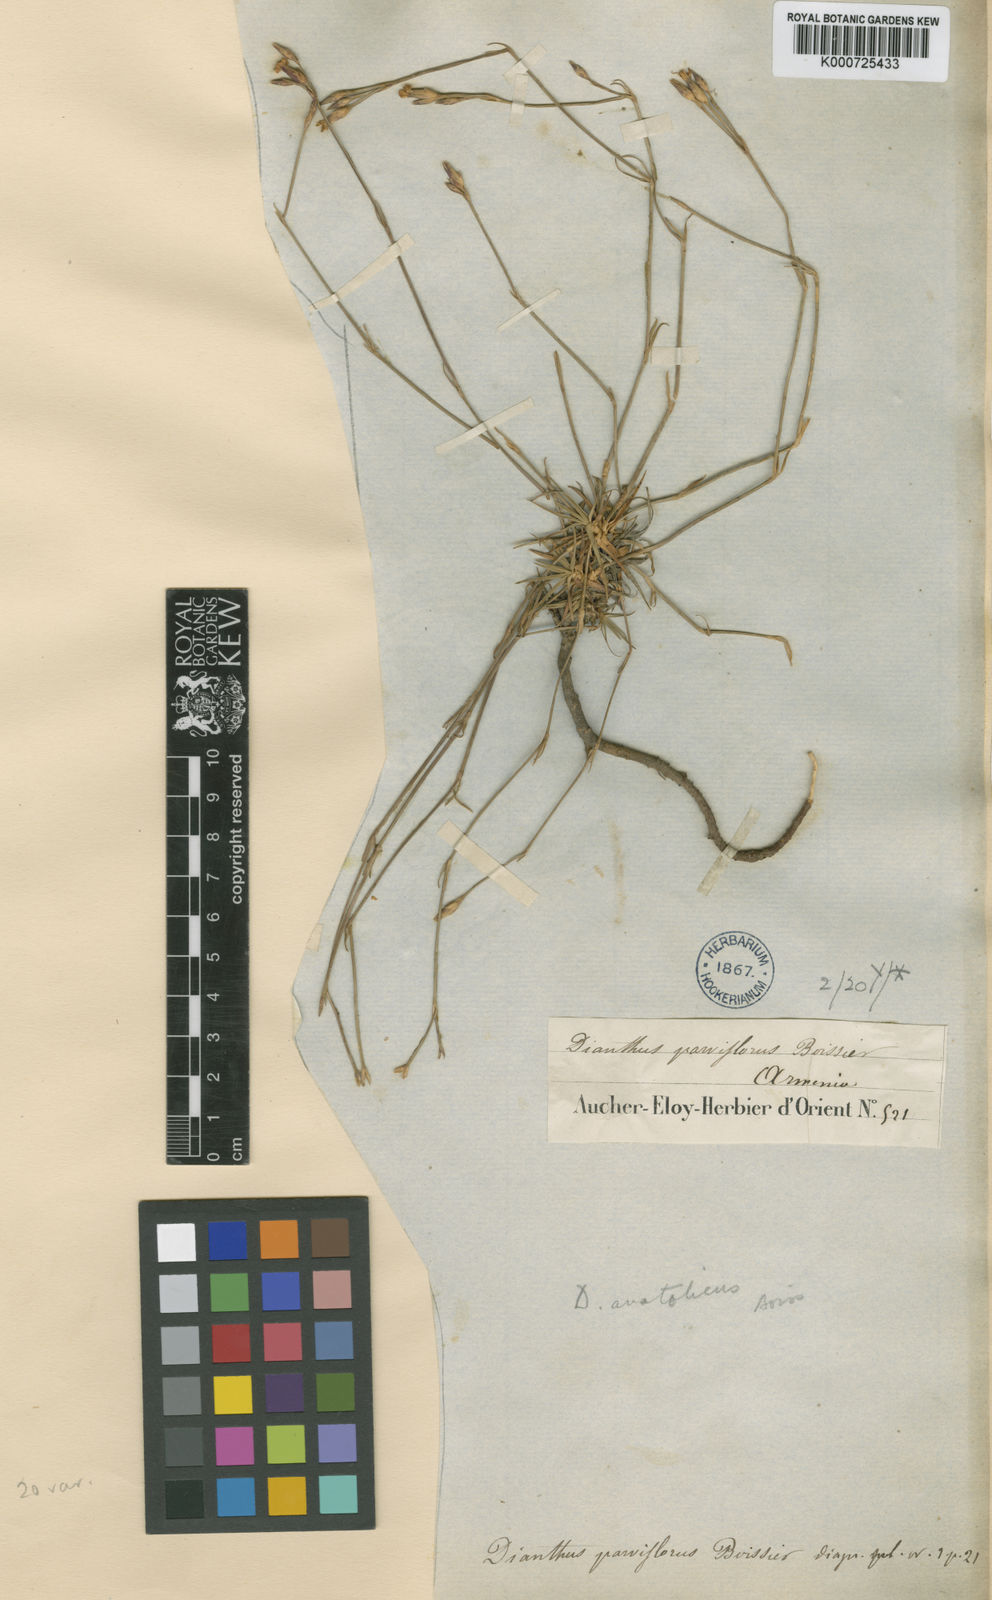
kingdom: Plantae
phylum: Tracheophyta
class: Magnoliopsida
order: Caryophyllales
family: Caryophyllaceae
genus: Dianthus
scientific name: Dianthus anatolicus
